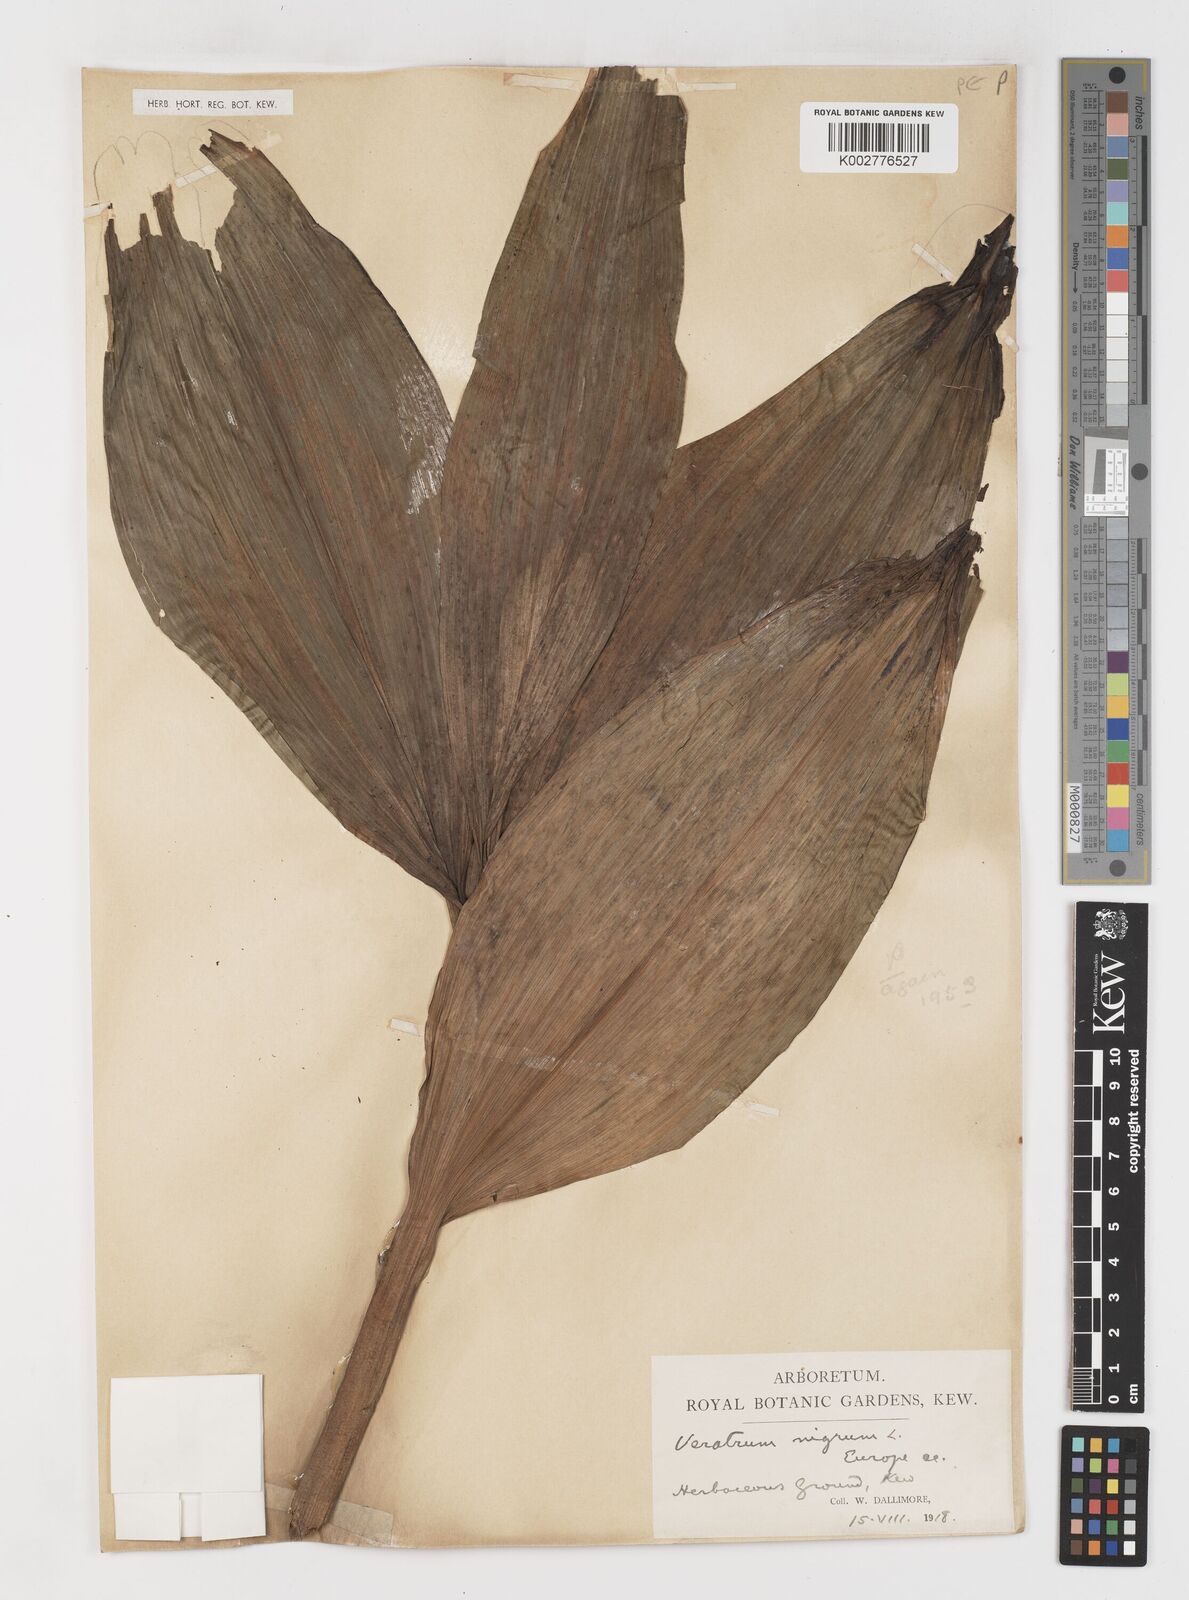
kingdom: Plantae
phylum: Tracheophyta
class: Liliopsida
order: Liliales
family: Melanthiaceae
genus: Veratrum
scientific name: Veratrum nigrum
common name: Black veratrum
